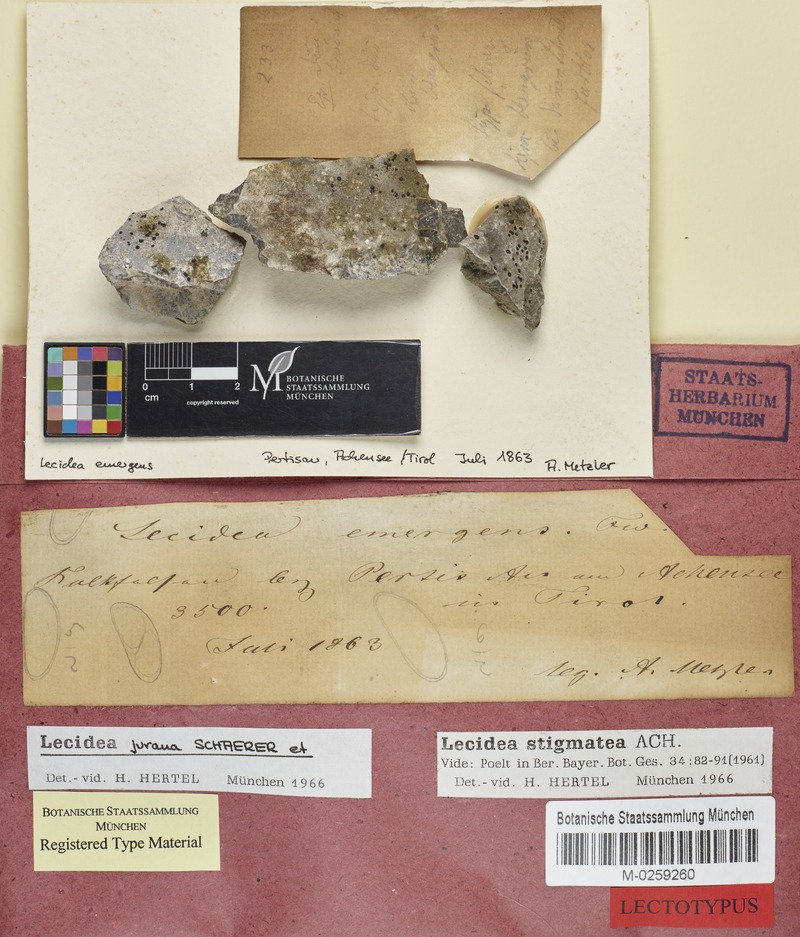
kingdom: Fungi
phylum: Ascomycota
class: Lecanoromycetes
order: Lecideales
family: Lecideaceae
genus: Farnoldia
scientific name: Farnoldia jurana
